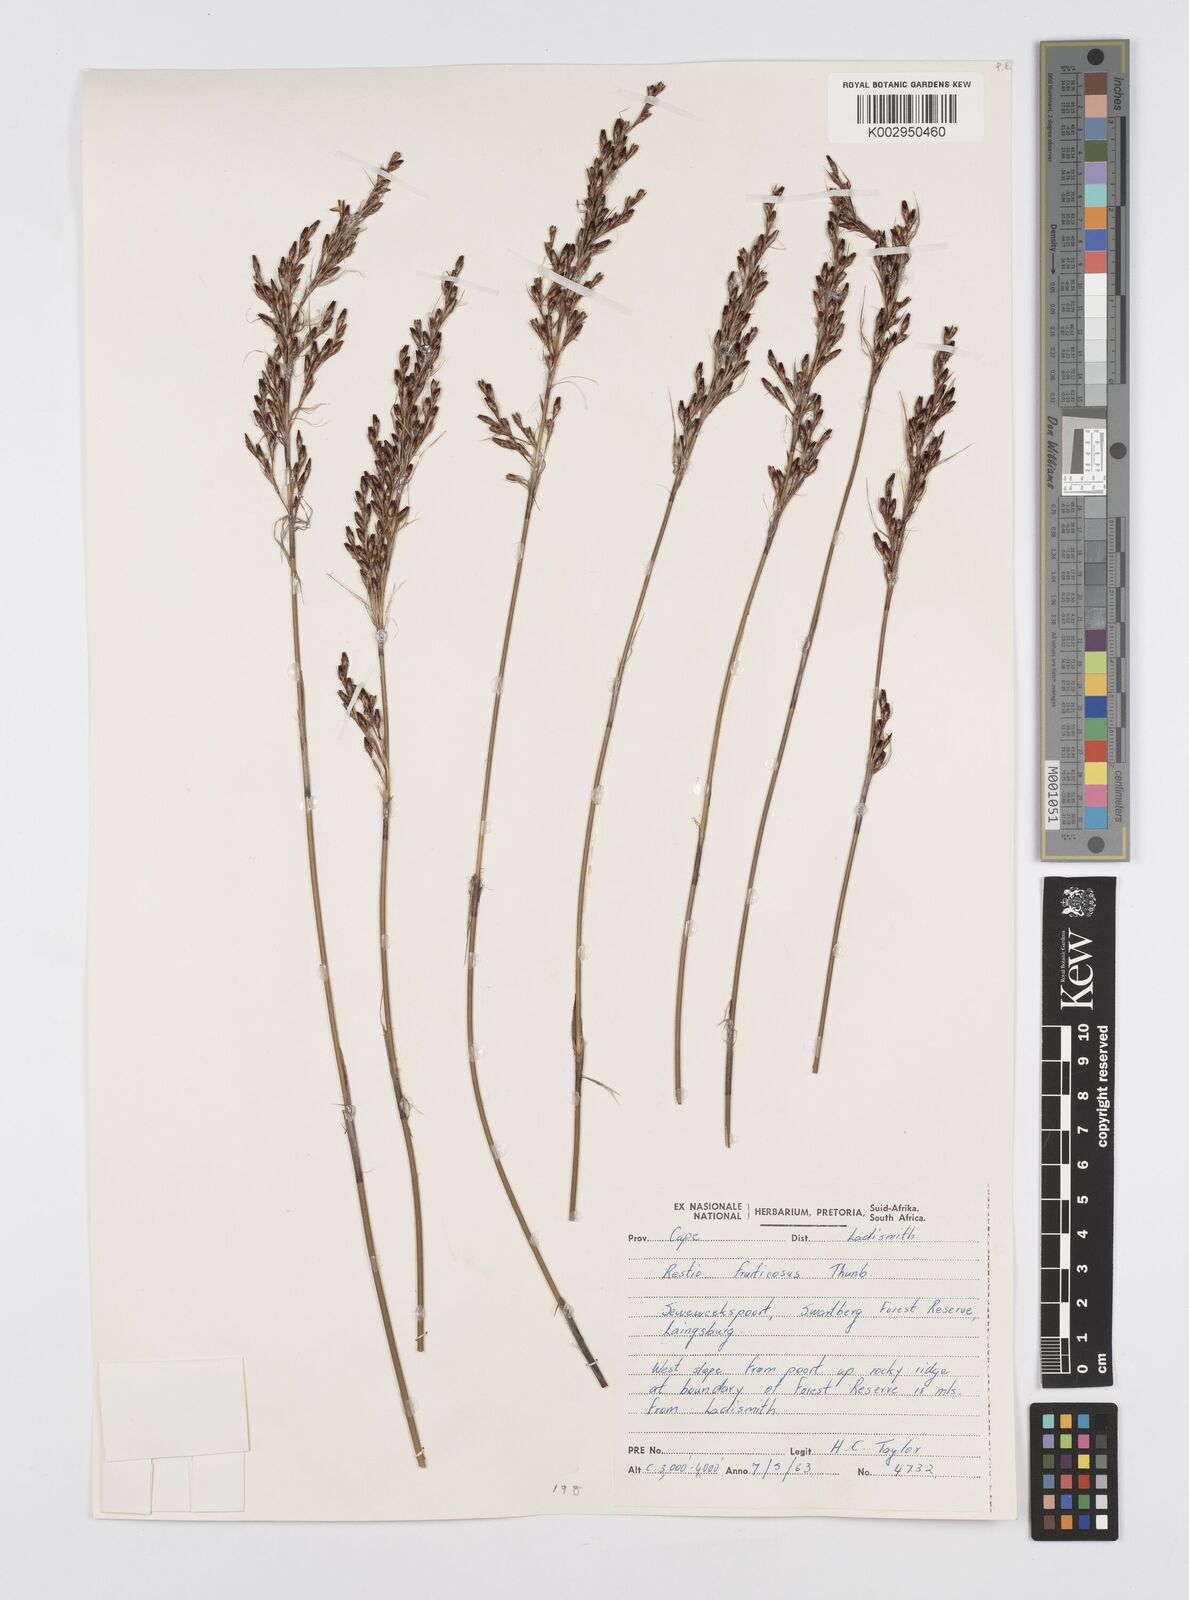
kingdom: Plantae
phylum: Tracheophyta
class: Liliopsida
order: Poales
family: Restionaceae
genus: Rhodocoma
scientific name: Rhodocoma fruticosa
